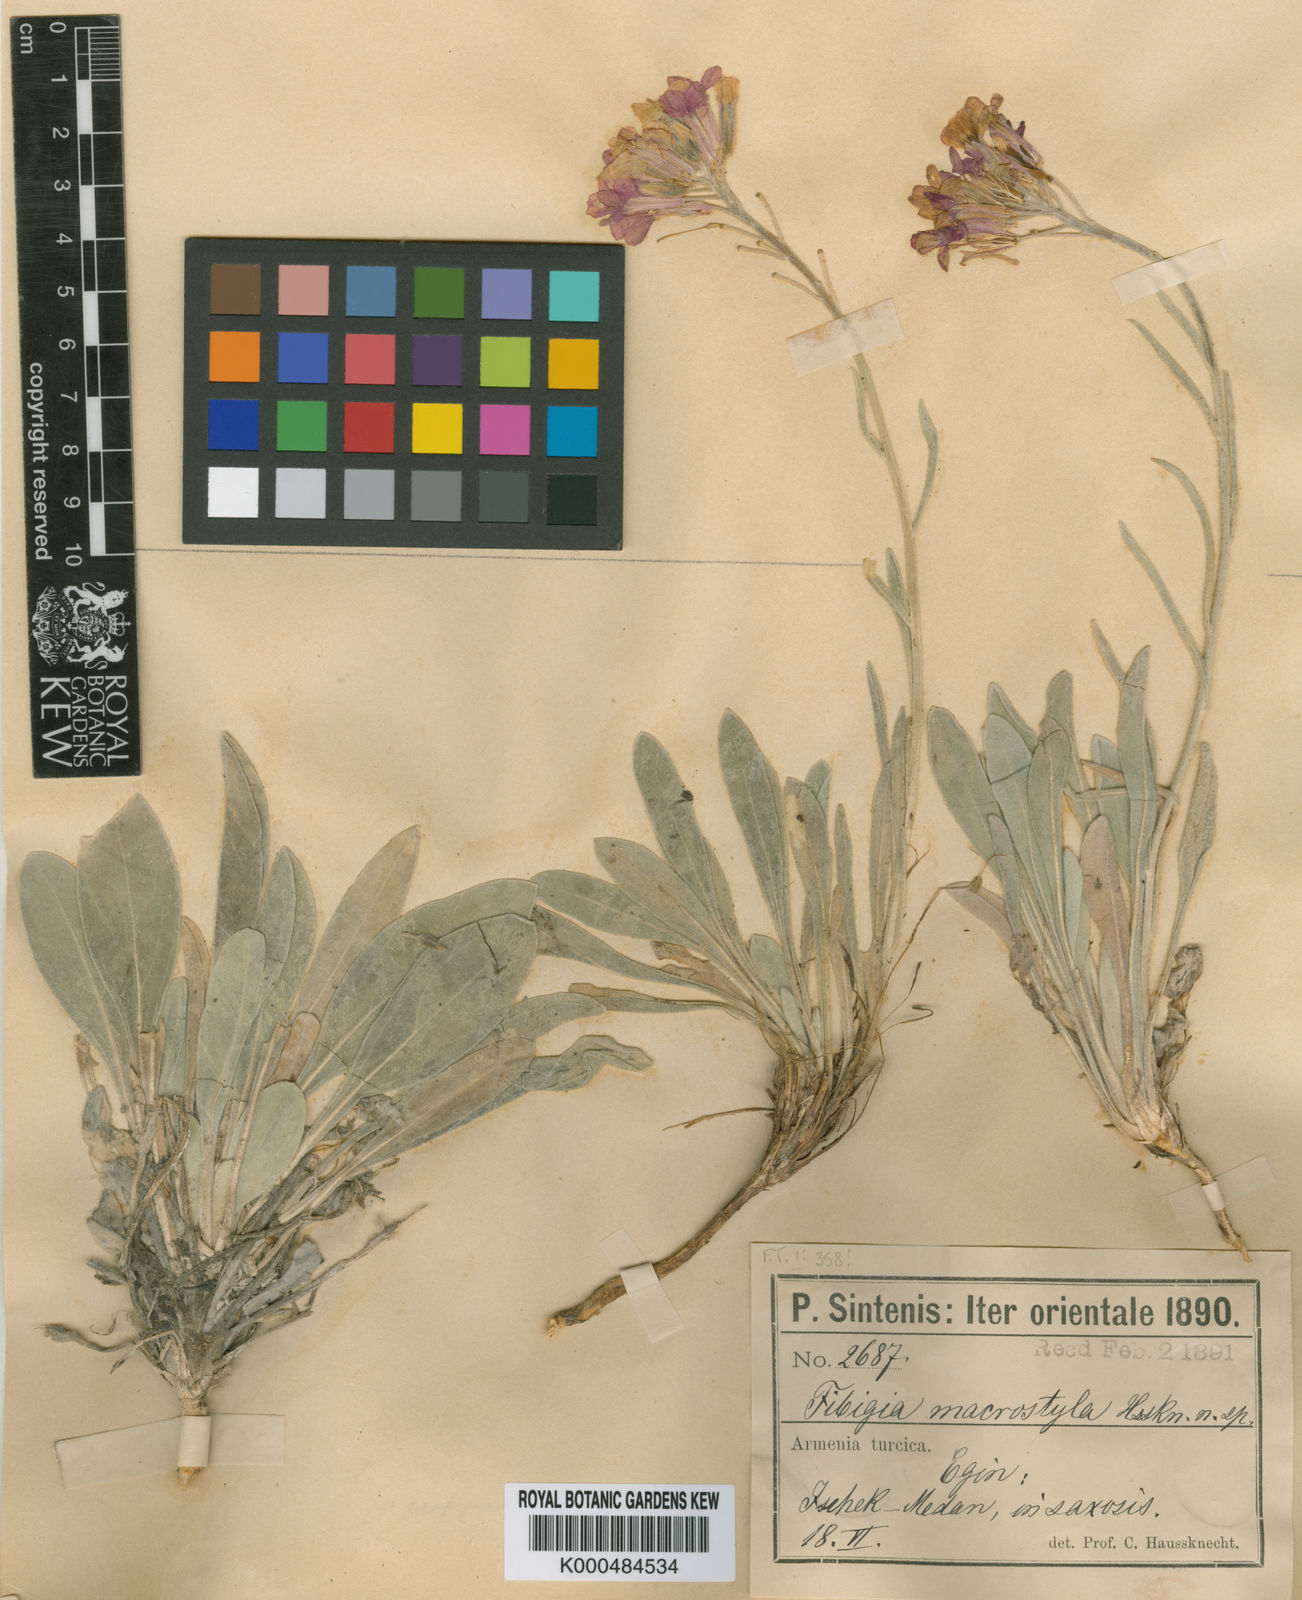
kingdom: Plantae
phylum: Tracheophyta
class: Magnoliopsida
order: Brassicales
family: Brassicaceae
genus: Brachypus
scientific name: Brachypus suffruticosus
